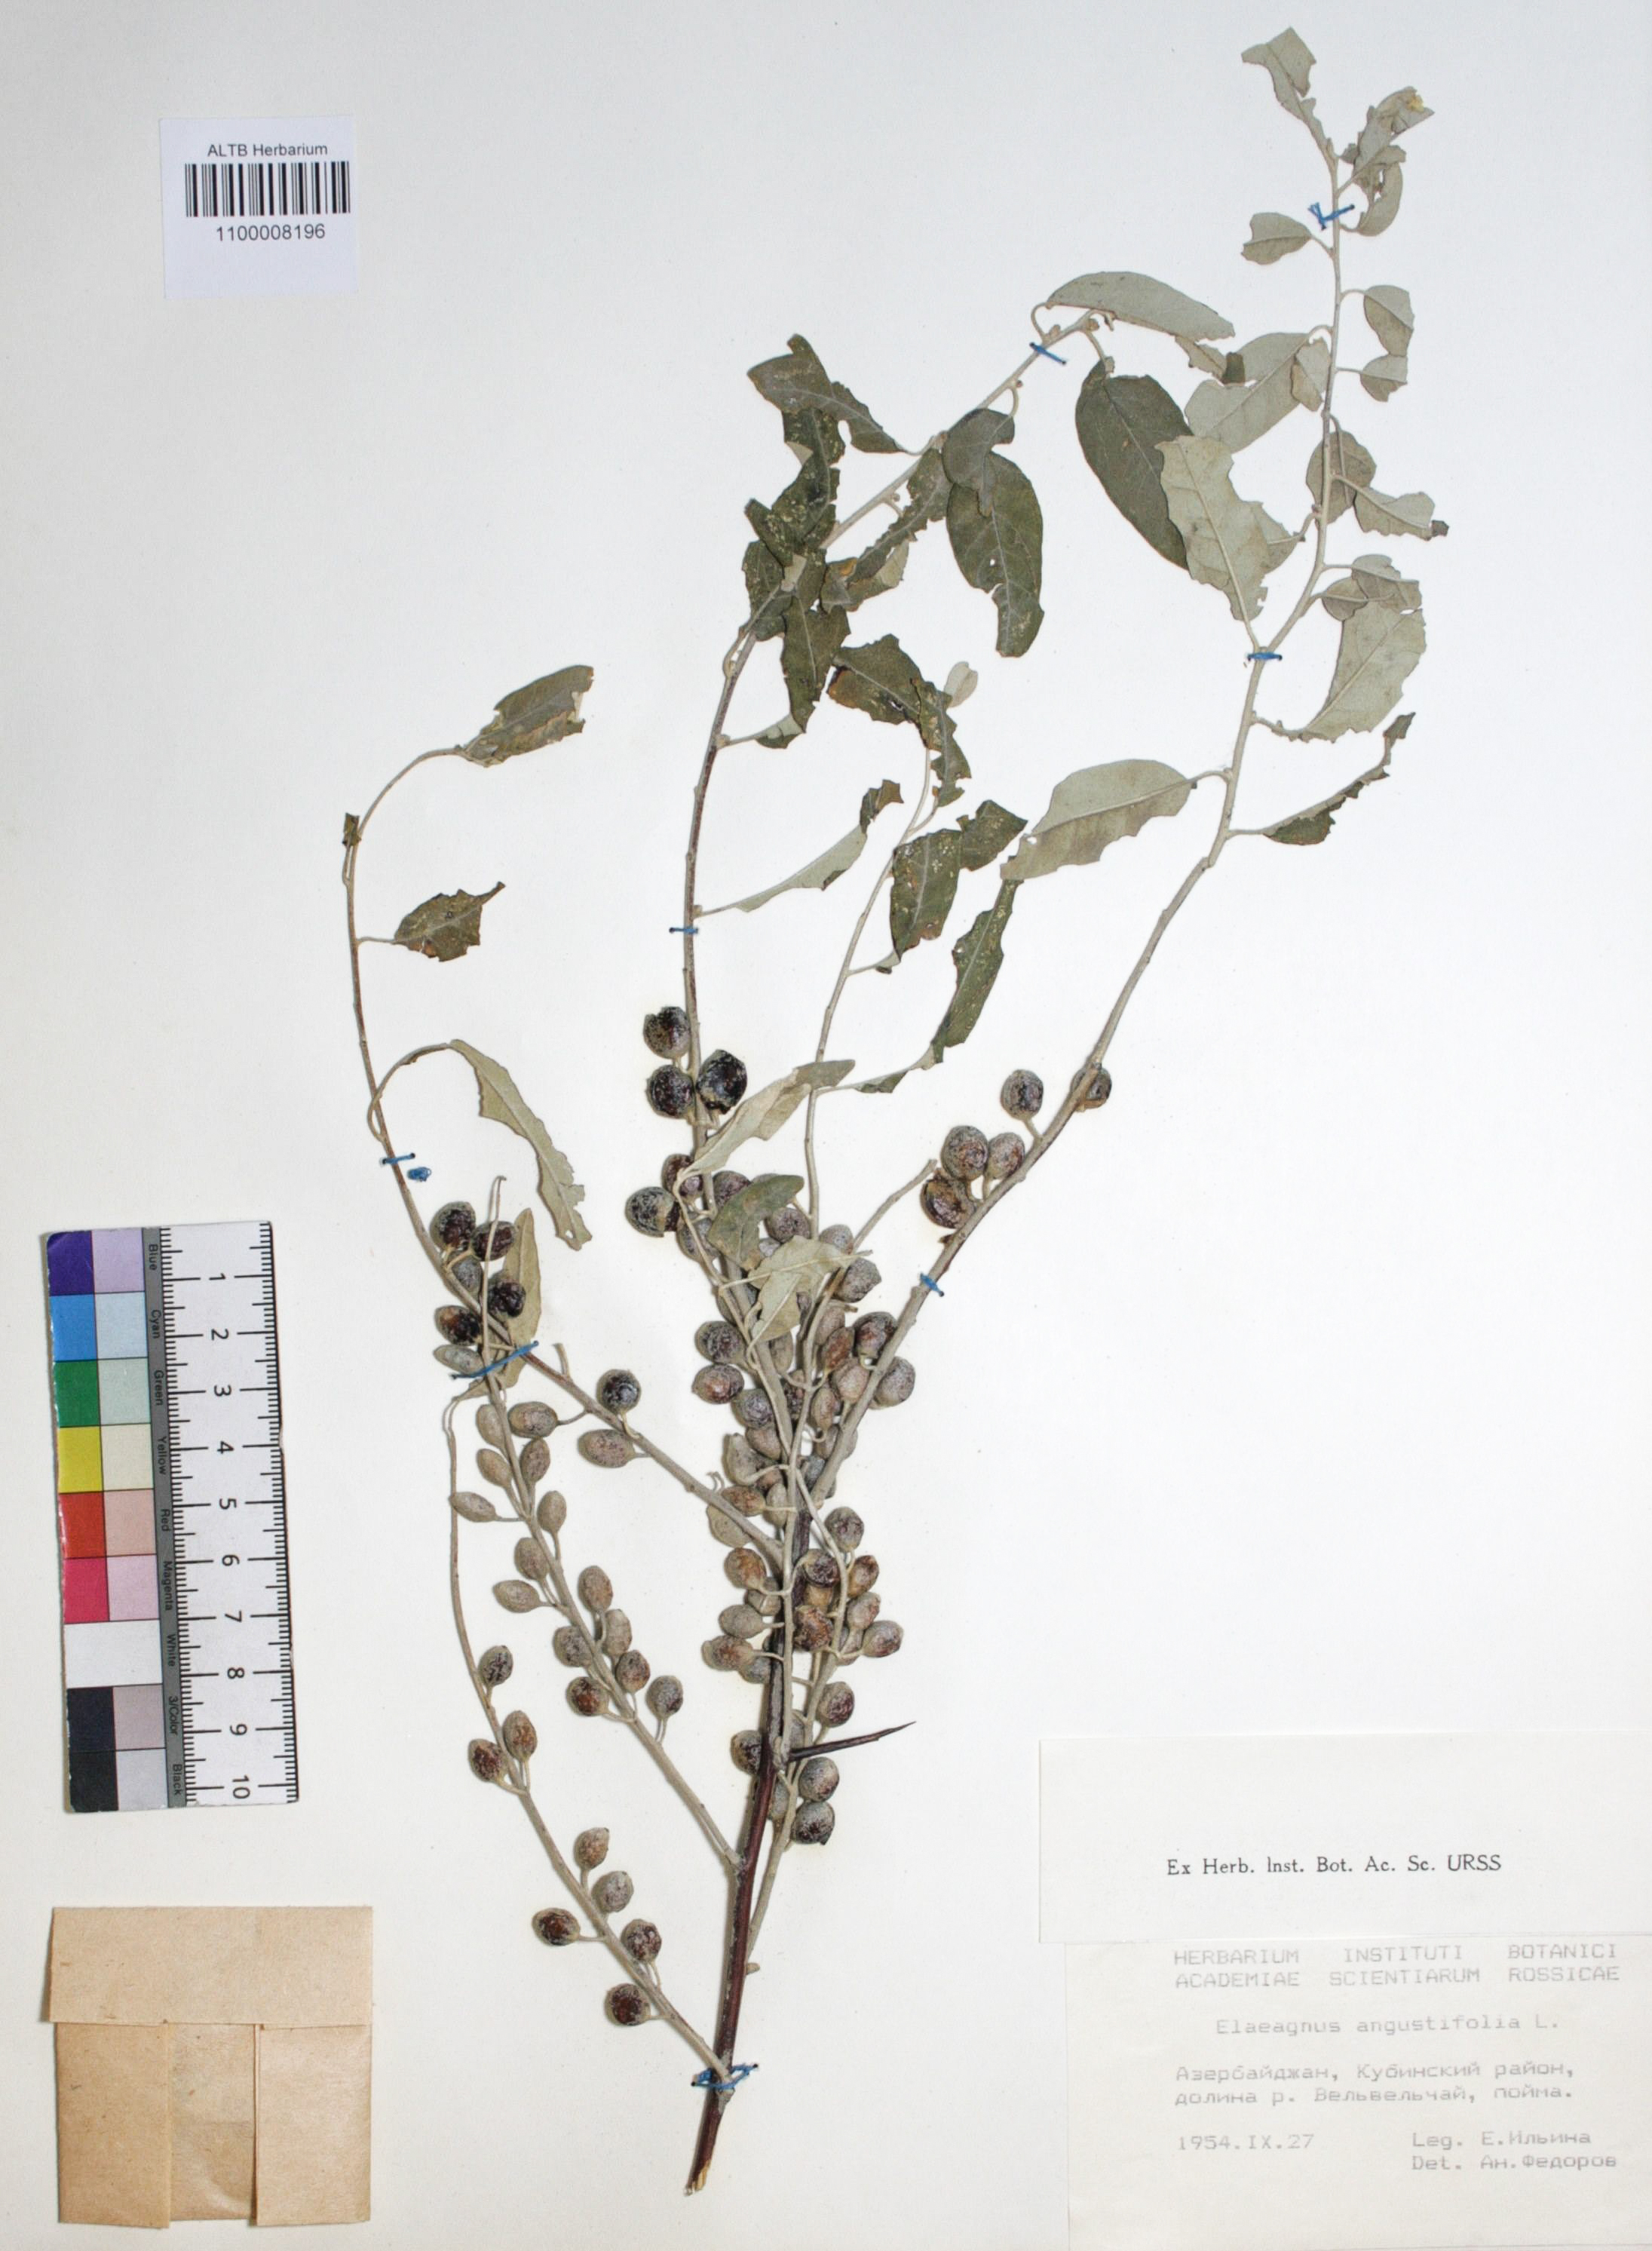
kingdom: Plantae
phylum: Tracheophyta
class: Magnoliopsida
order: Rosales
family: Elaeagnaceae
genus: Elaeagnus
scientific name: Elaeagnus angustifolia
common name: Russian olive
